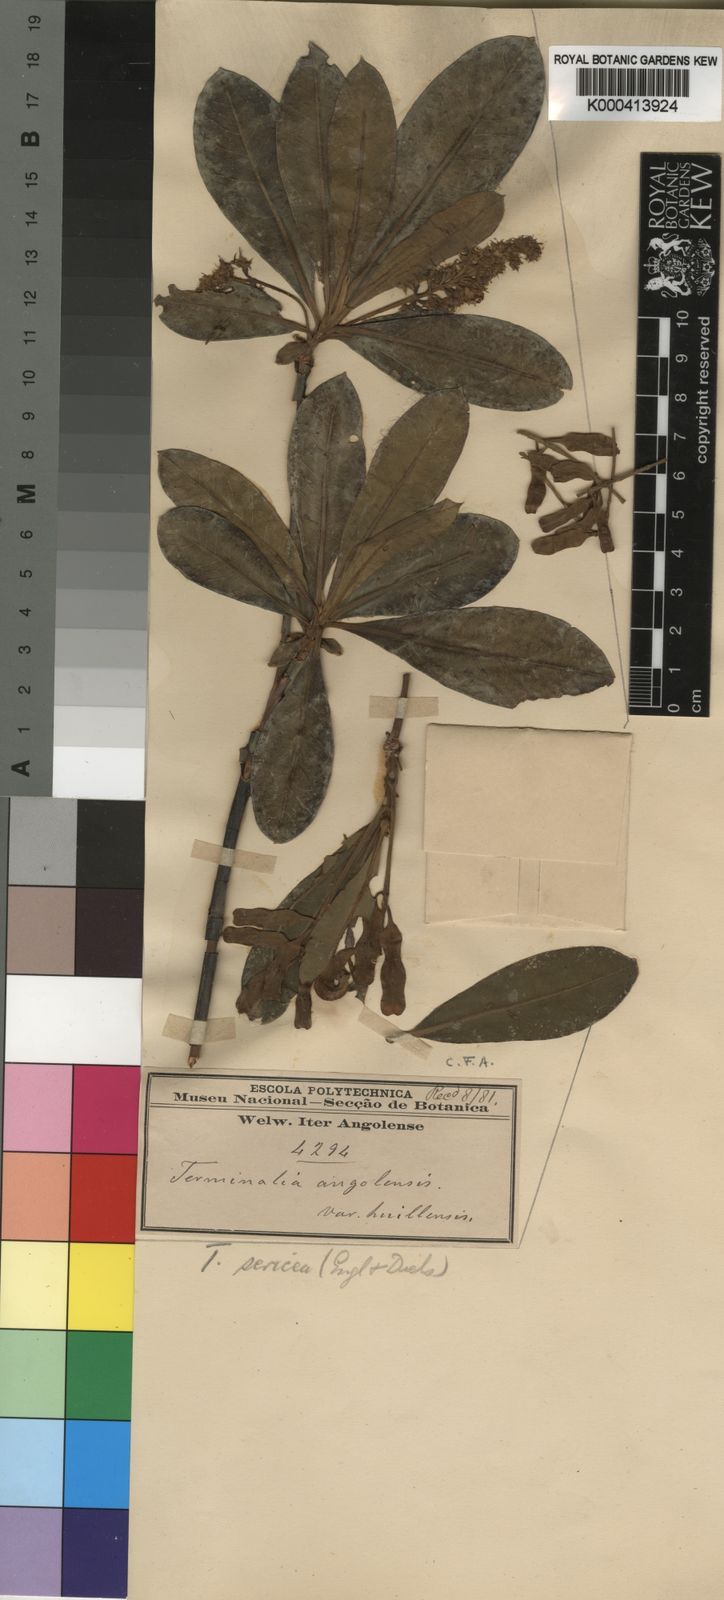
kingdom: Plantae
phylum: Tracheophyta
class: Magnoliopsida
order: Myrtales
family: Combretaceae
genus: Terminalia
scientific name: Terminalia sericea
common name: Clusterleaf
